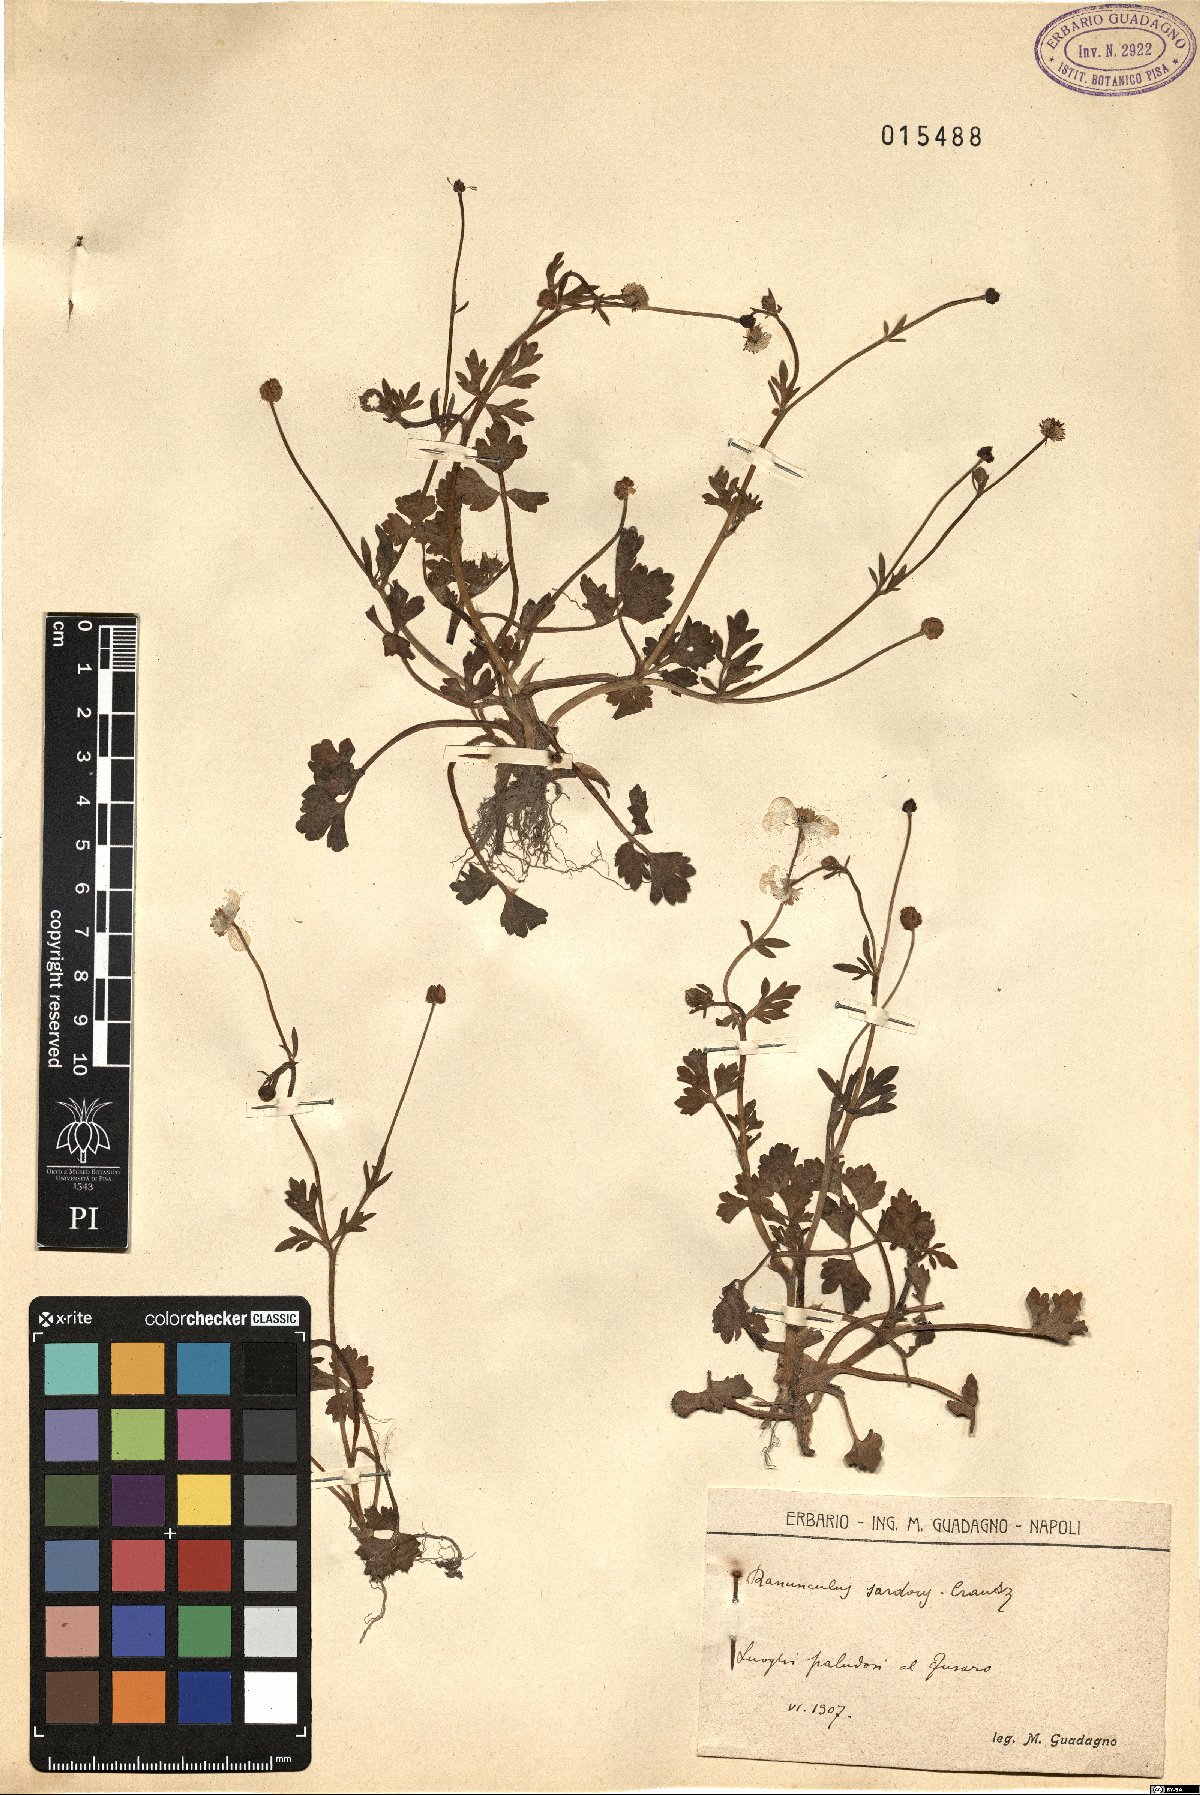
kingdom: Plantae
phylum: Tracheophyta
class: Magnoliopsida
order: Ranunculales
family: Ranunculaceae
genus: Ranunculus
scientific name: Ranunculus sardous
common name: Hairy buttercup
